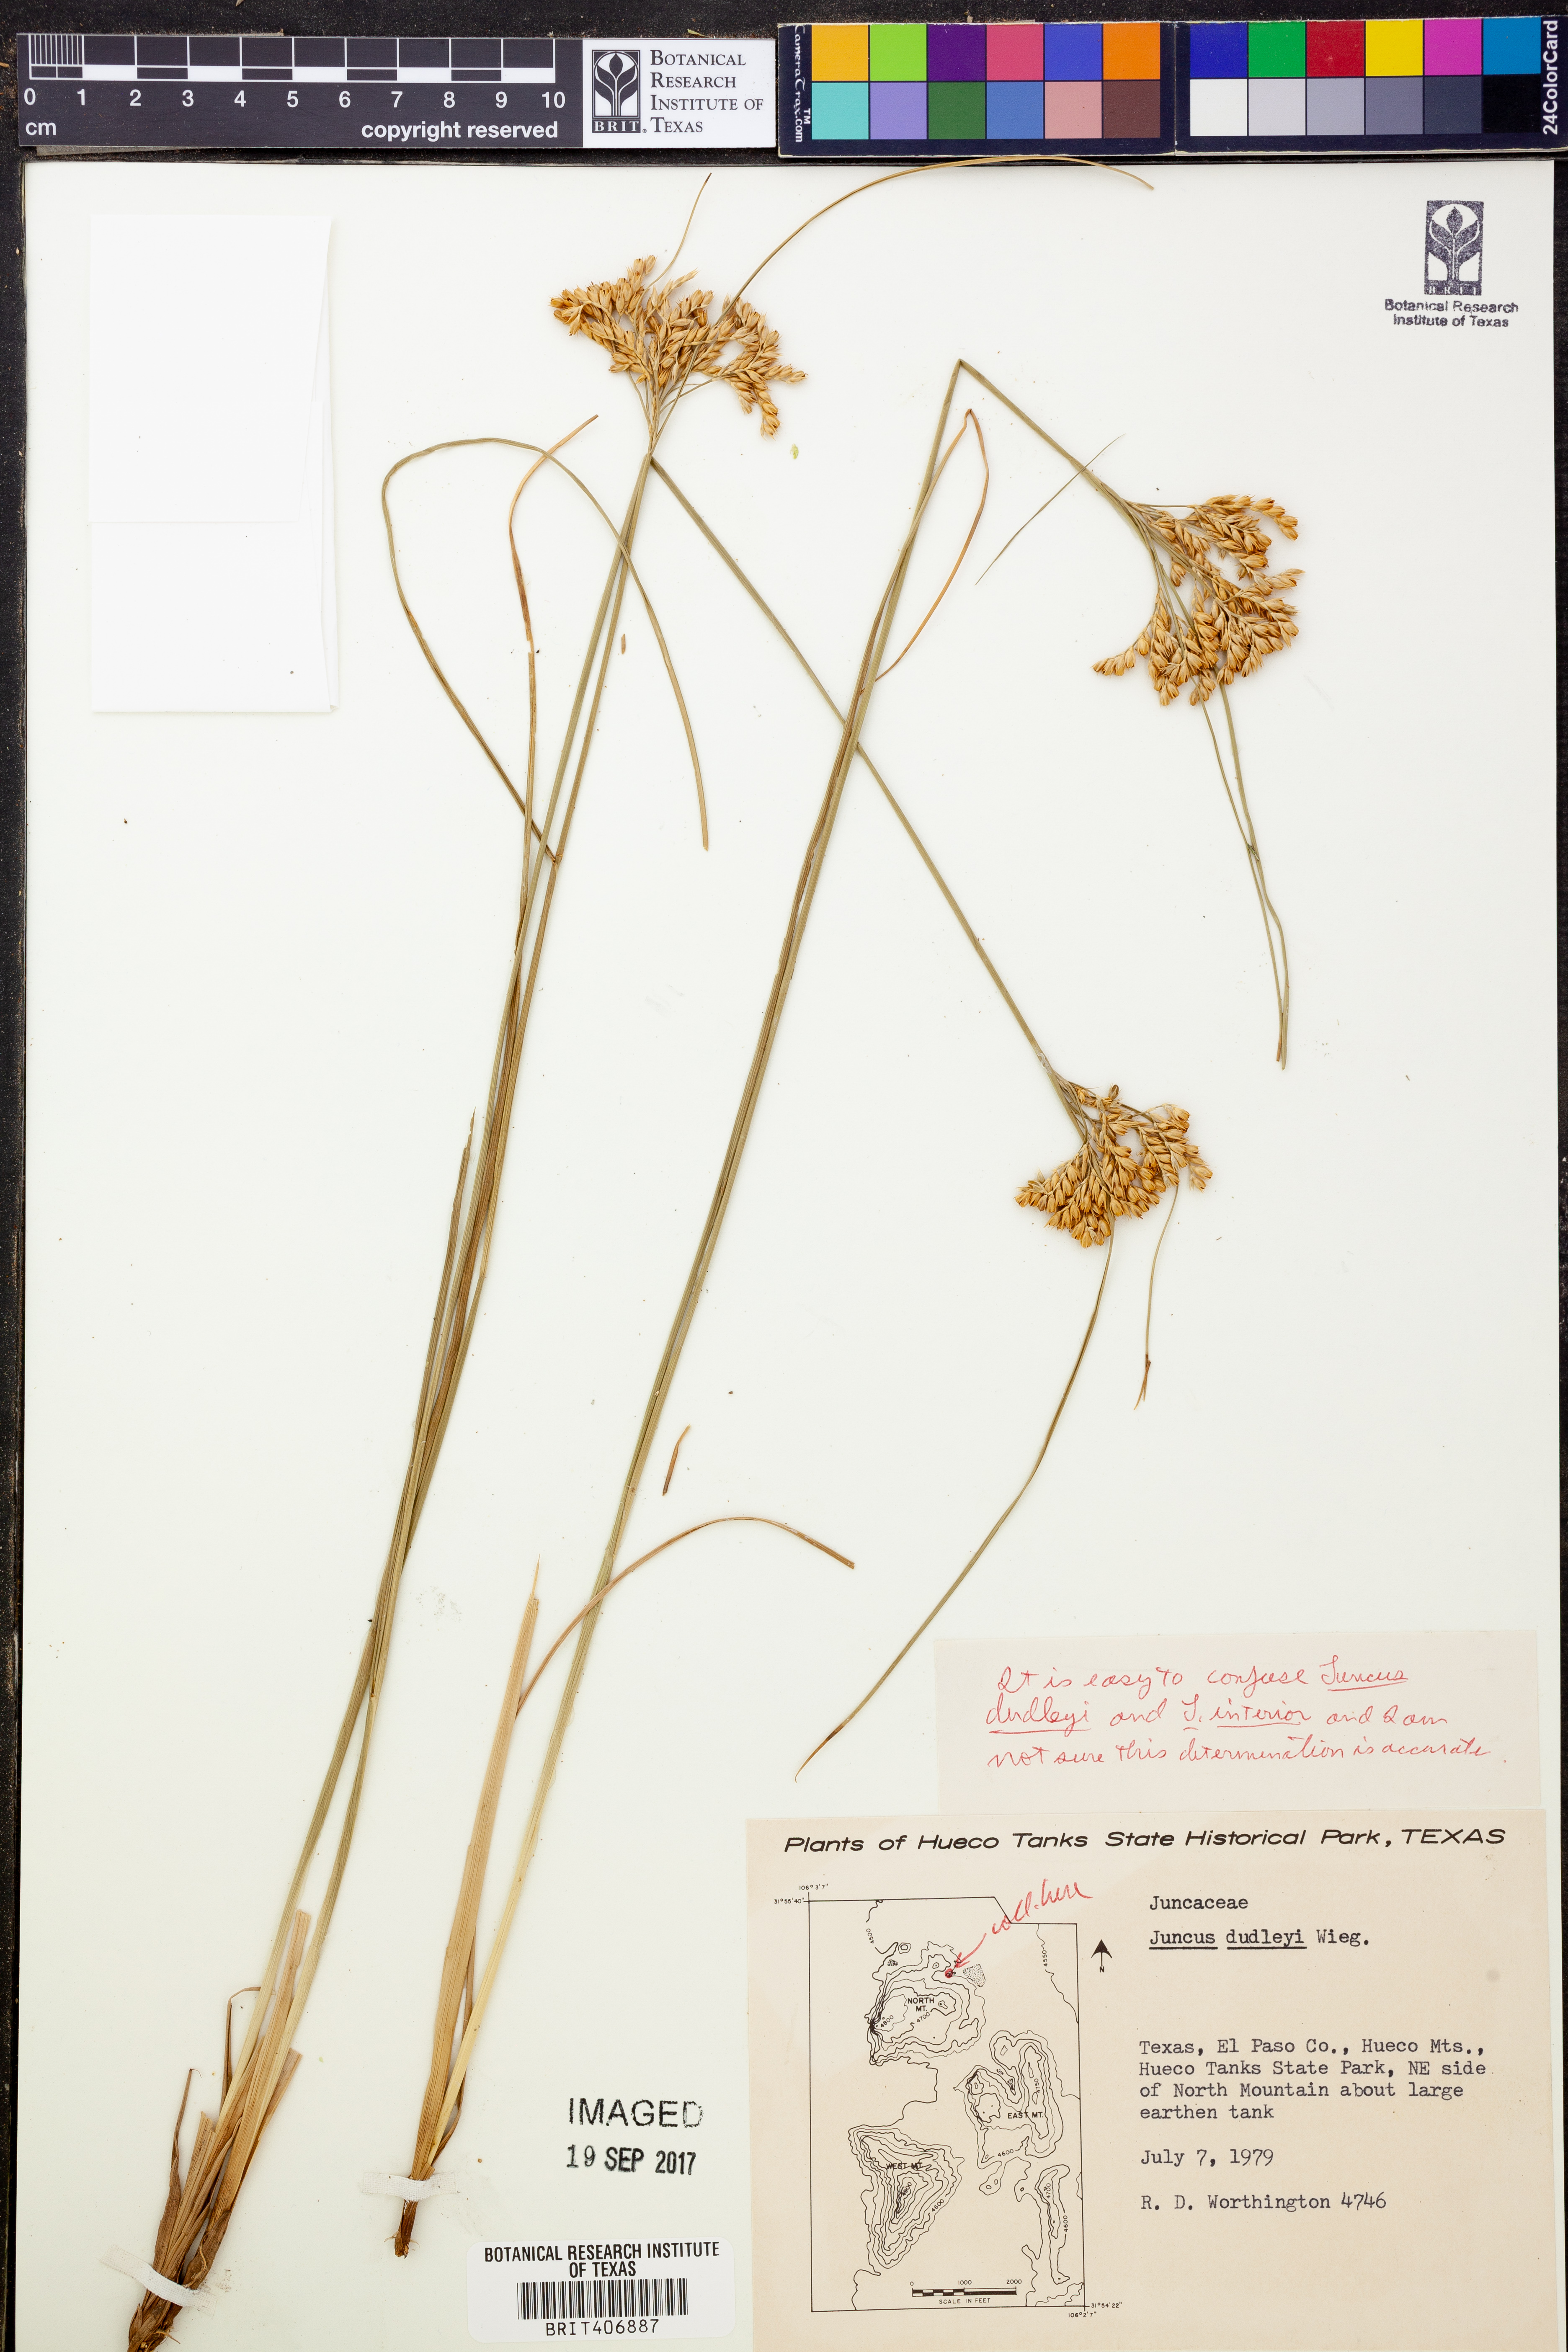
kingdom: Plantae
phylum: Tracheophyta
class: Liliopsida
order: Poales
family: Juncaceae
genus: Juncus
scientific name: Juncus dudleyi
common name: Dudley's rush
